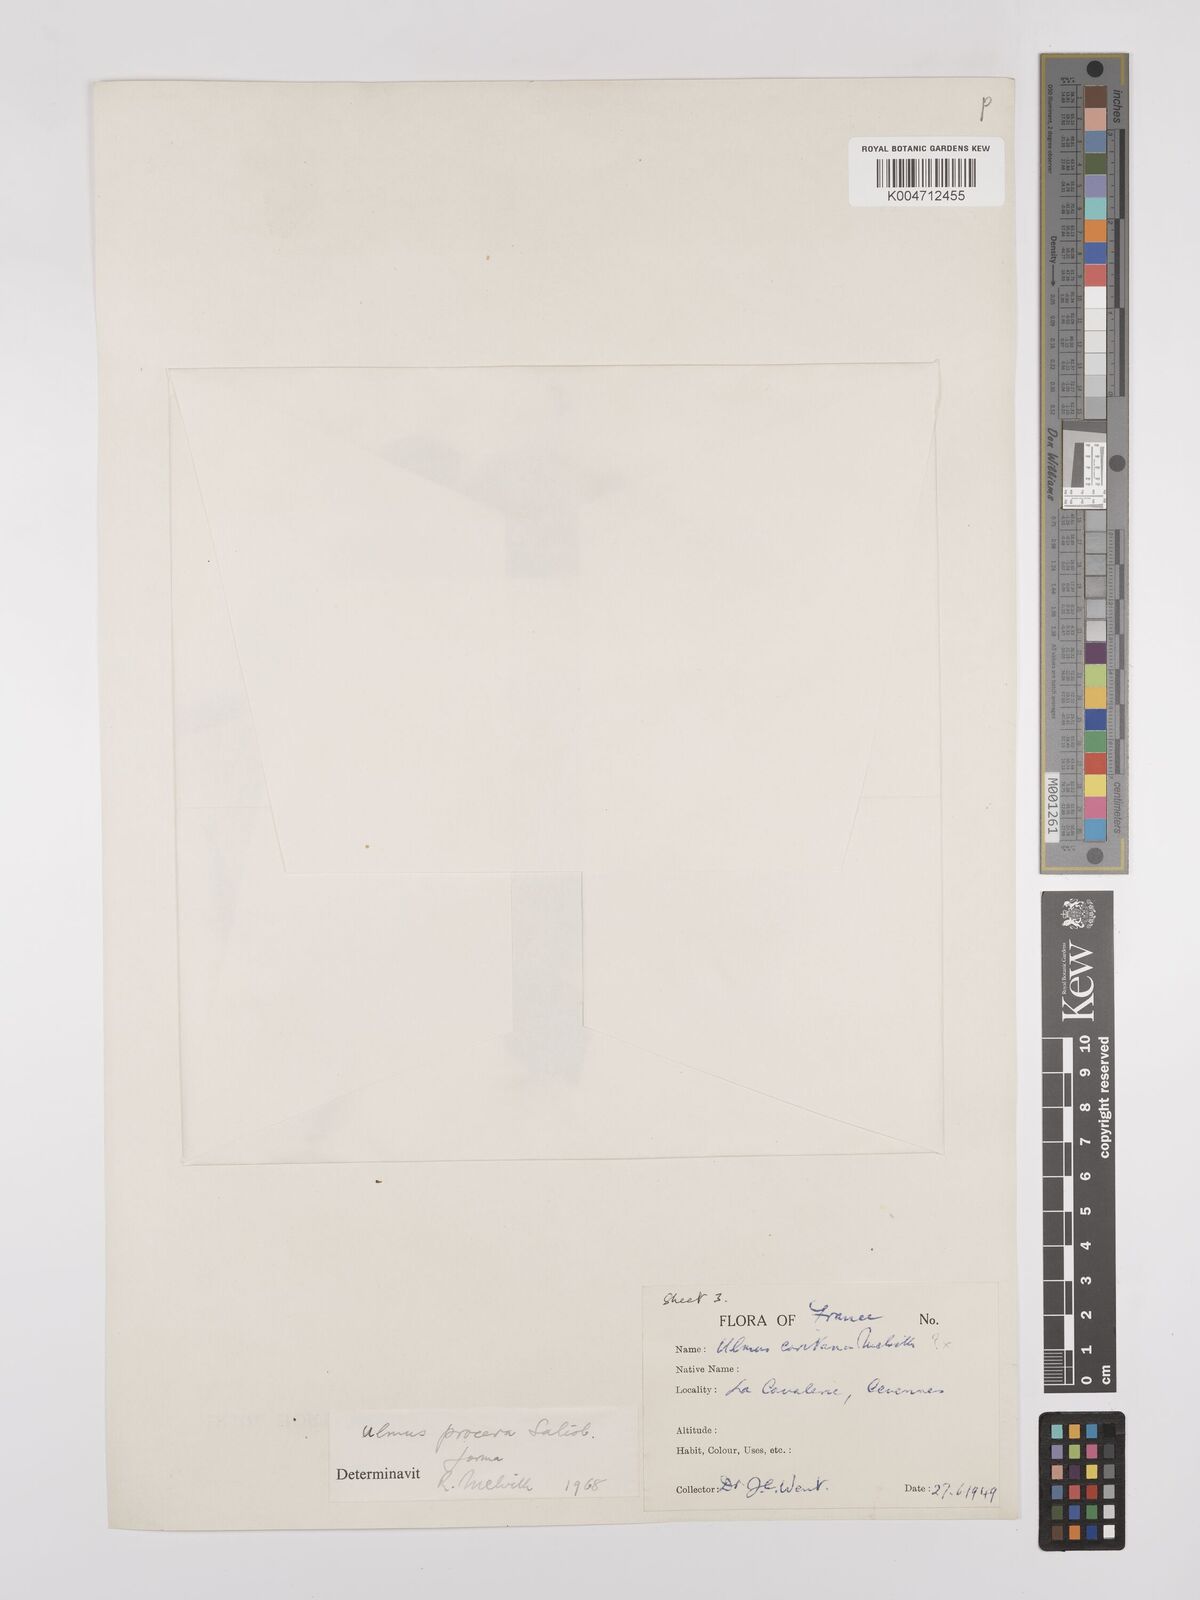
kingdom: Plantae
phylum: Tracheophyta
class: Magnoliopsida
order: Rosales
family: Ulmaceae
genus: Ulmus
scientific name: Ulmus minor
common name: Small-leaved elm
